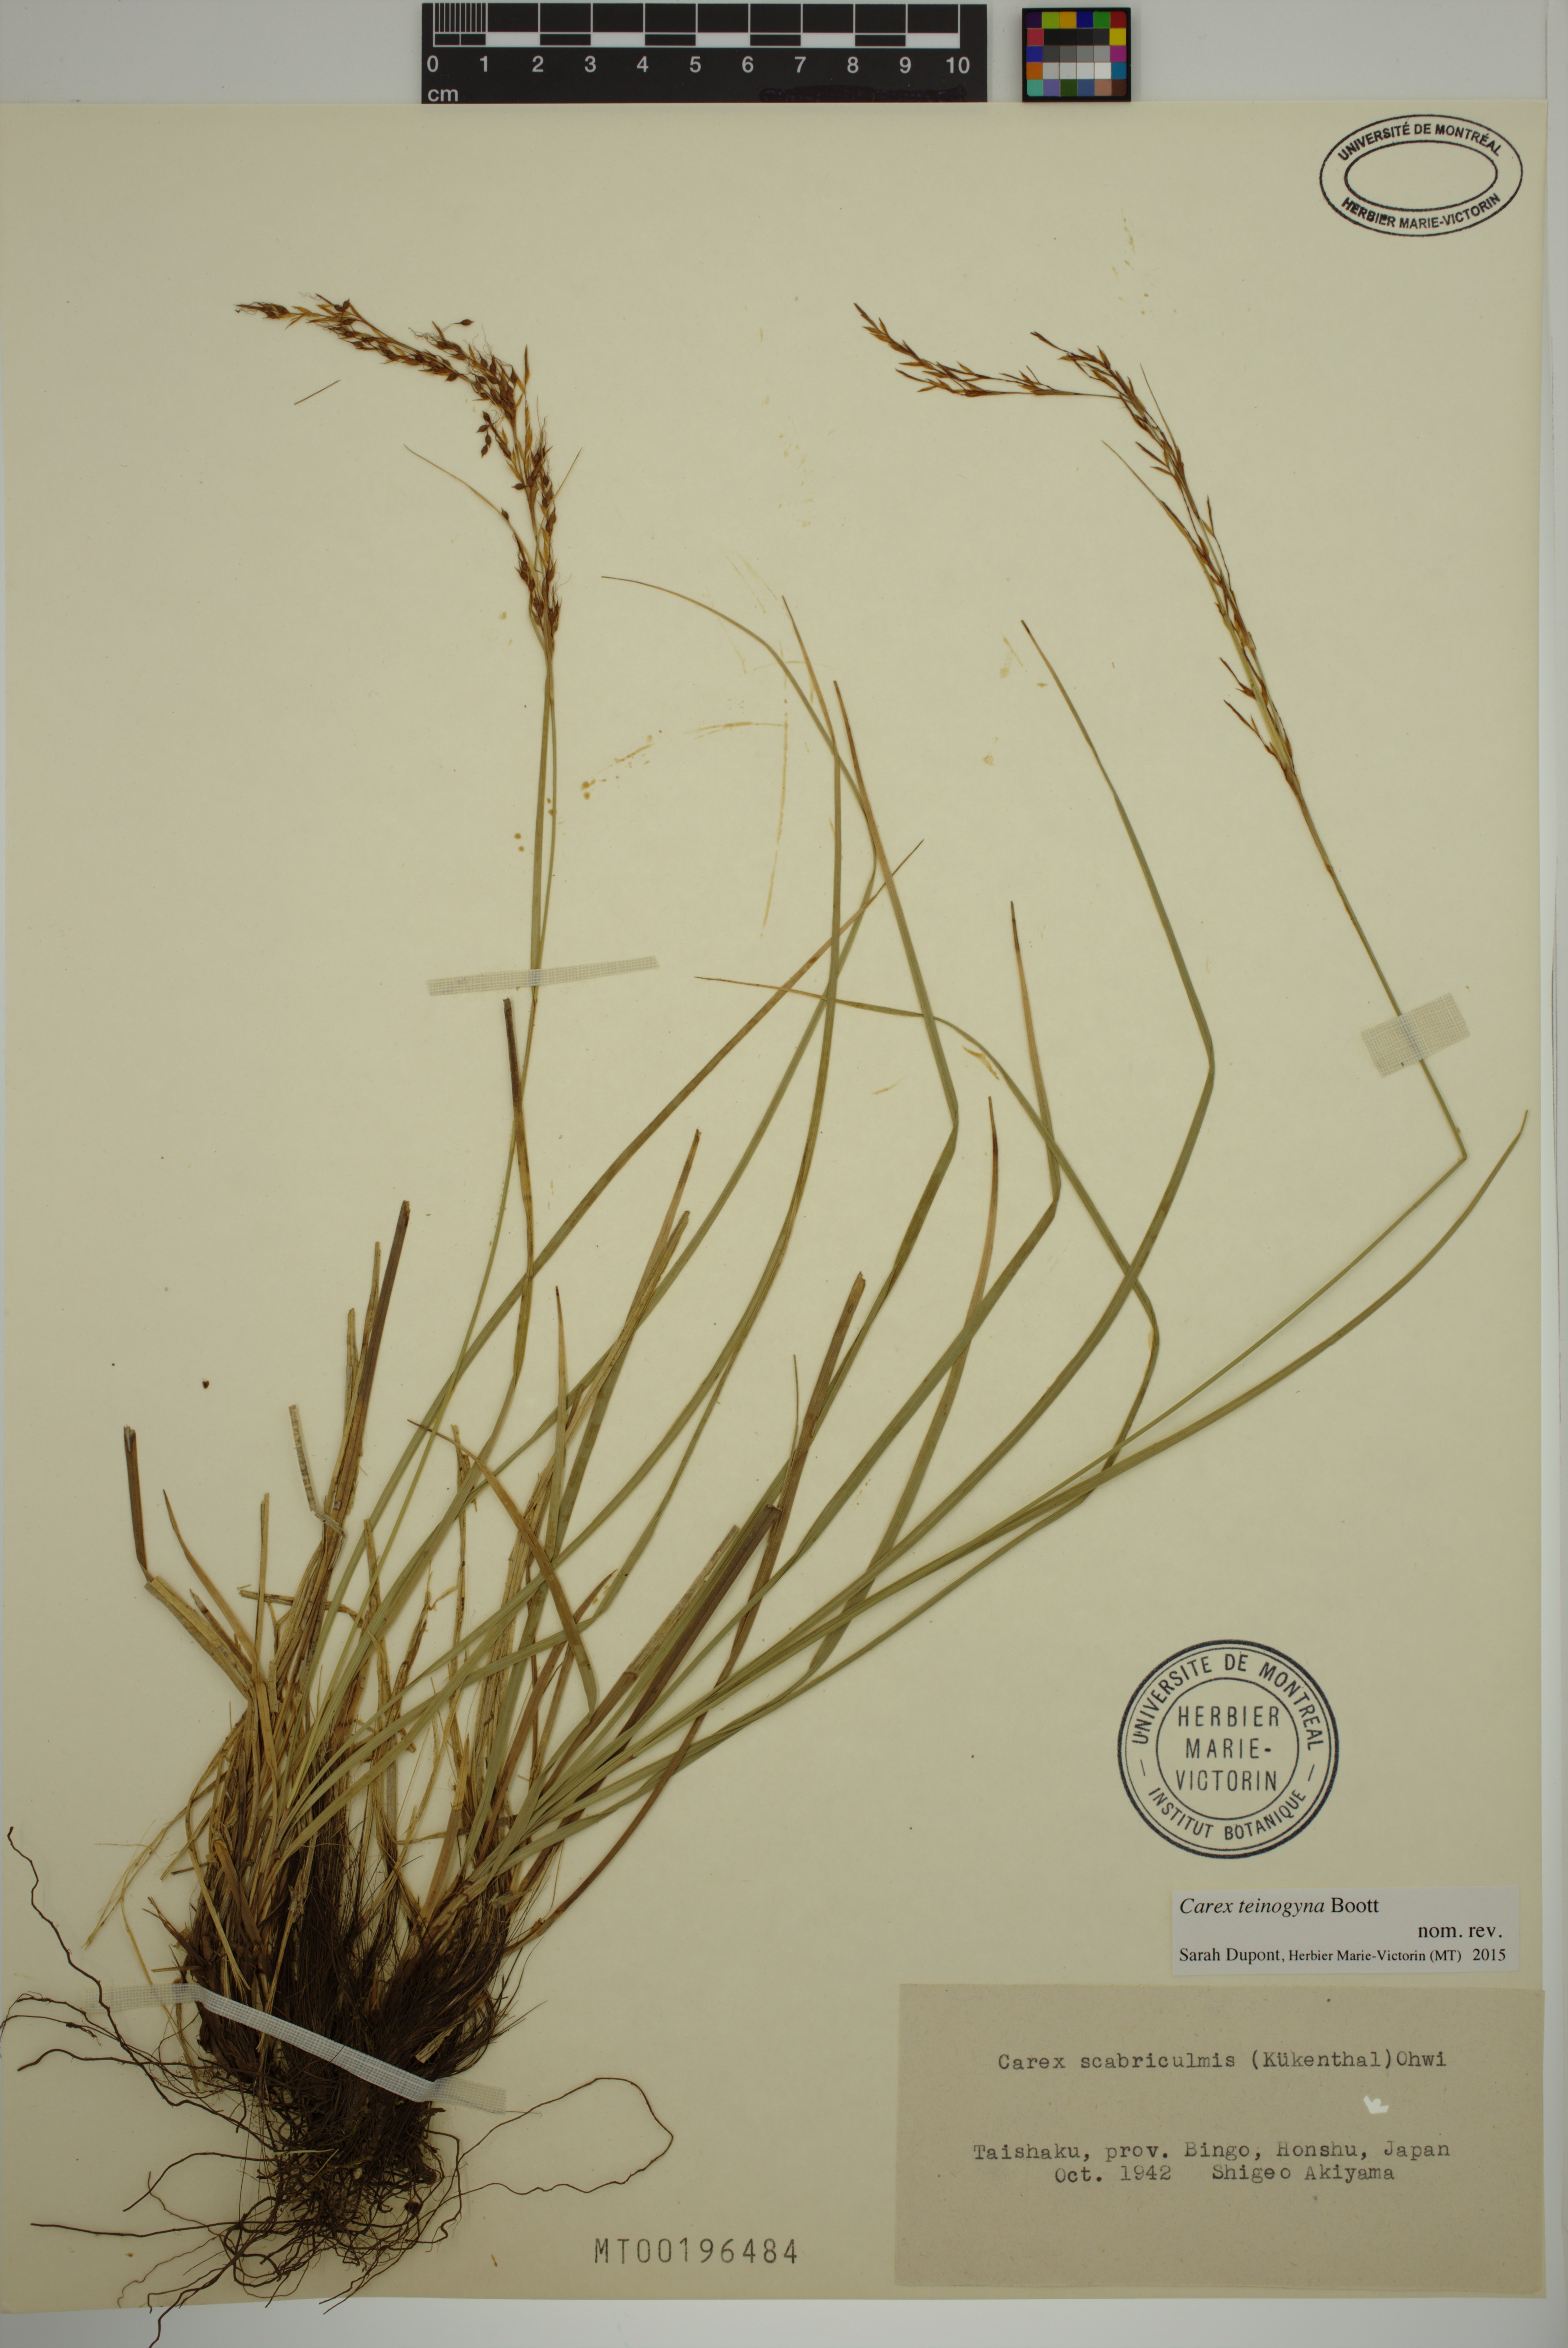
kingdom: Plantae
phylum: Tracheophyta
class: Liliopsida
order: Poales
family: Cyperaceae
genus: Carex
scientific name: Carex teinogyna
